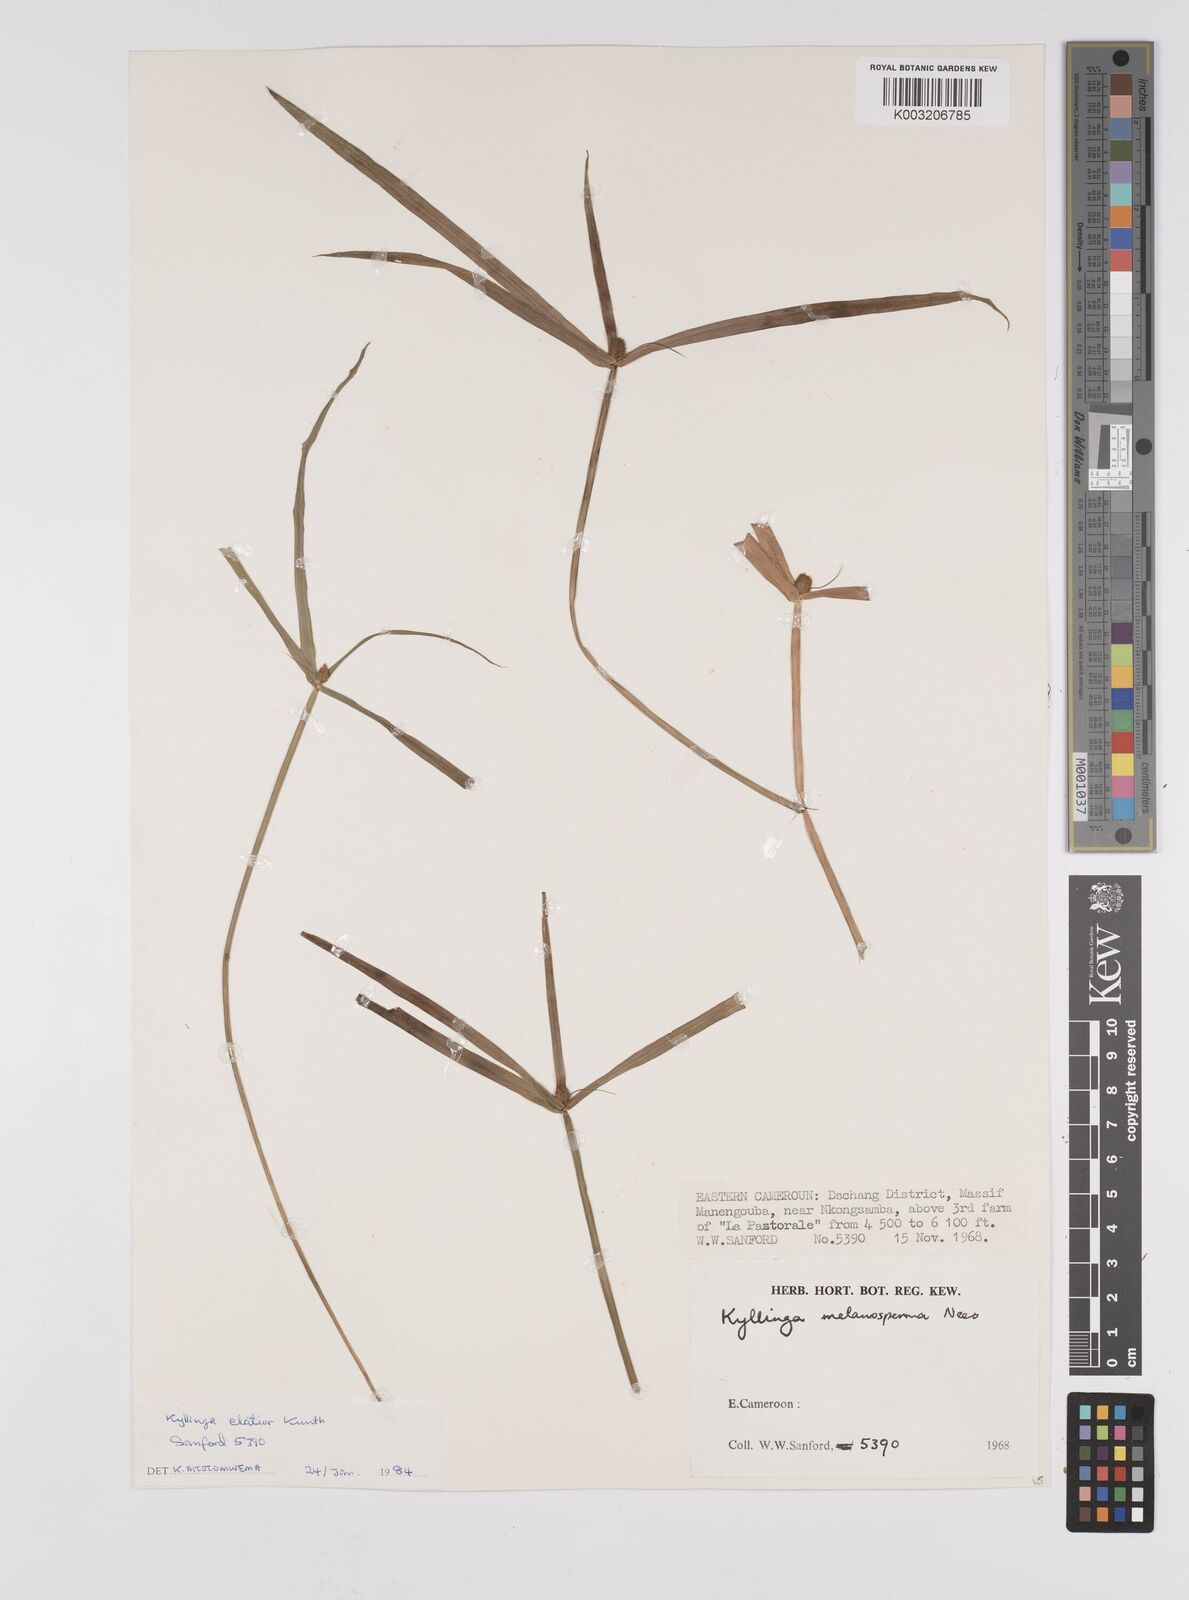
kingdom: Plantae
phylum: Tracheophyta
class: Liliopsida
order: Poales
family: Cyperaceae
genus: Cyperus
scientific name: Cyperus melanospermus
